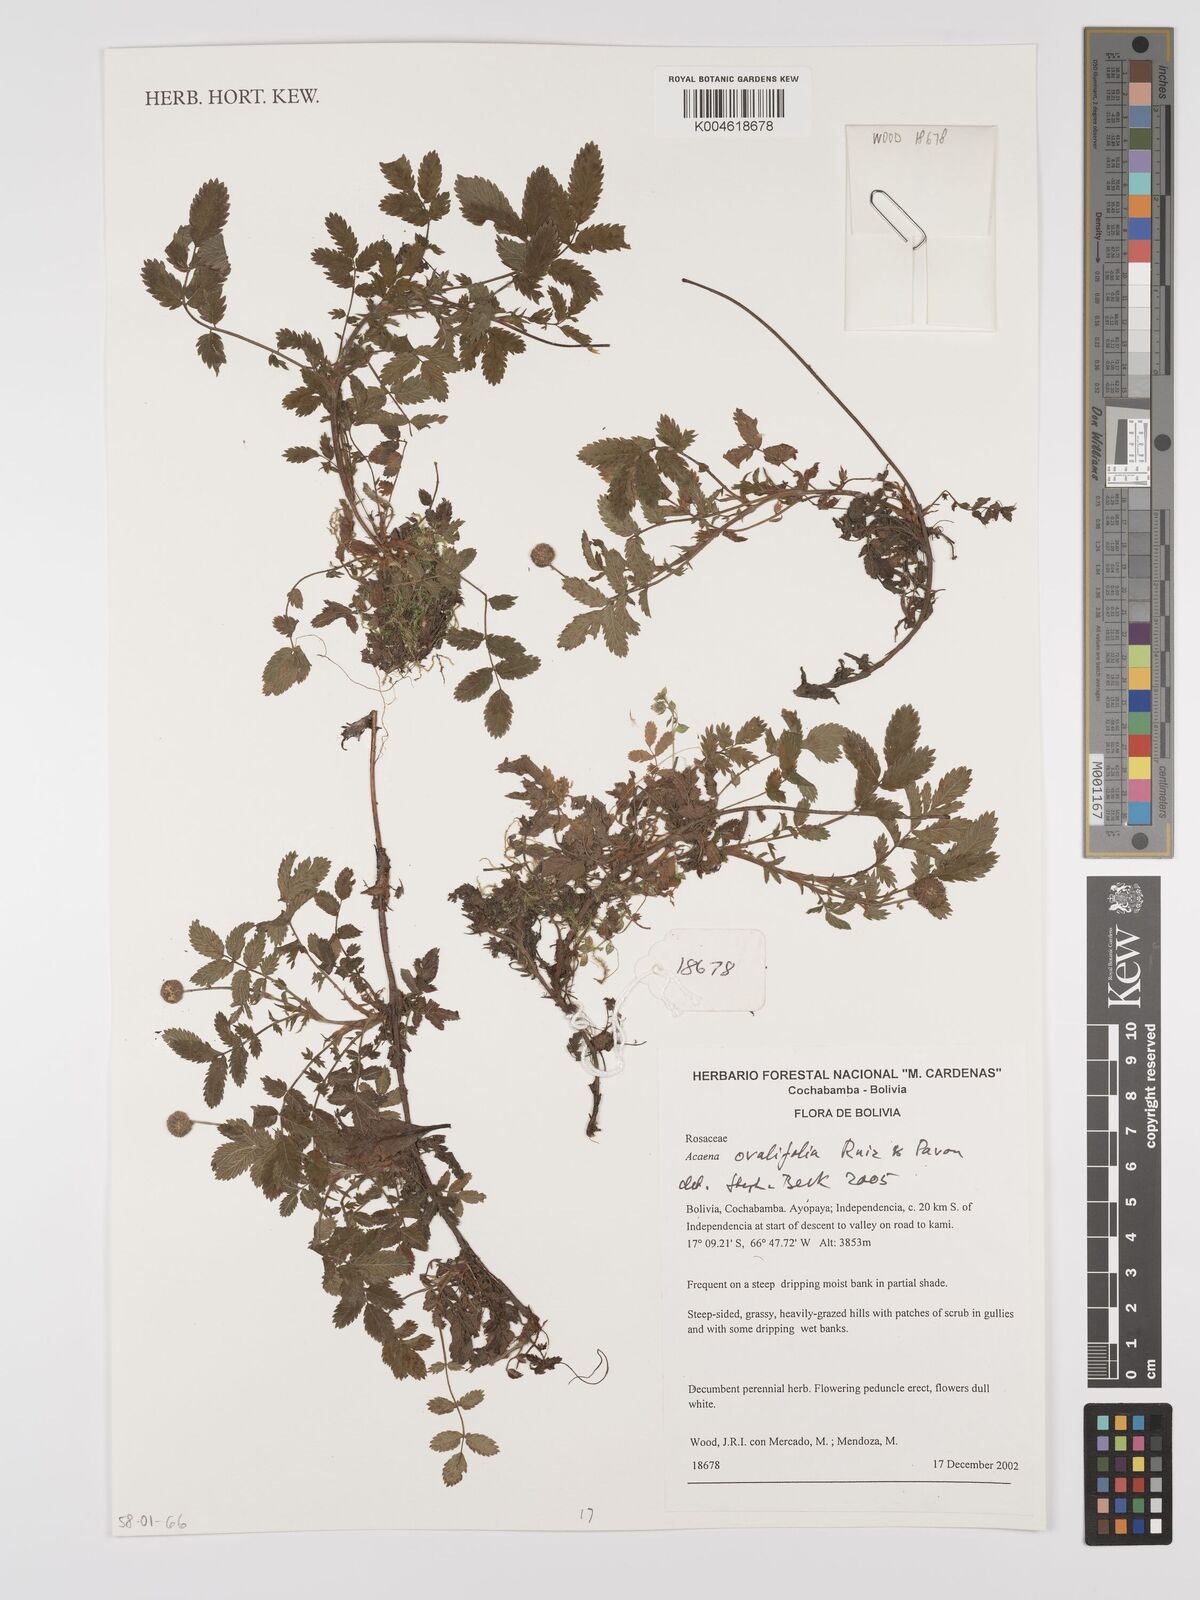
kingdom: Plantae
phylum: Tracheophyta
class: Magnoliopsida
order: Rosales
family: Rosaceae
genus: Acaena
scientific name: Acaena ovalifolia
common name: Two-spined acaena
